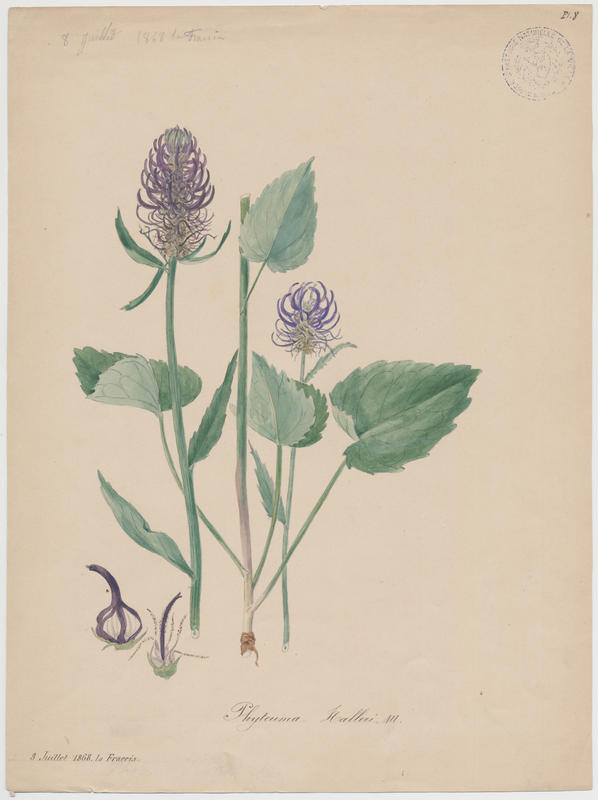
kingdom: Plantae
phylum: Tracheophyta
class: Magnoliopsida
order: Asterales
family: Campanulaceae
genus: Phyteuma
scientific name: Phyteuma ovatum
